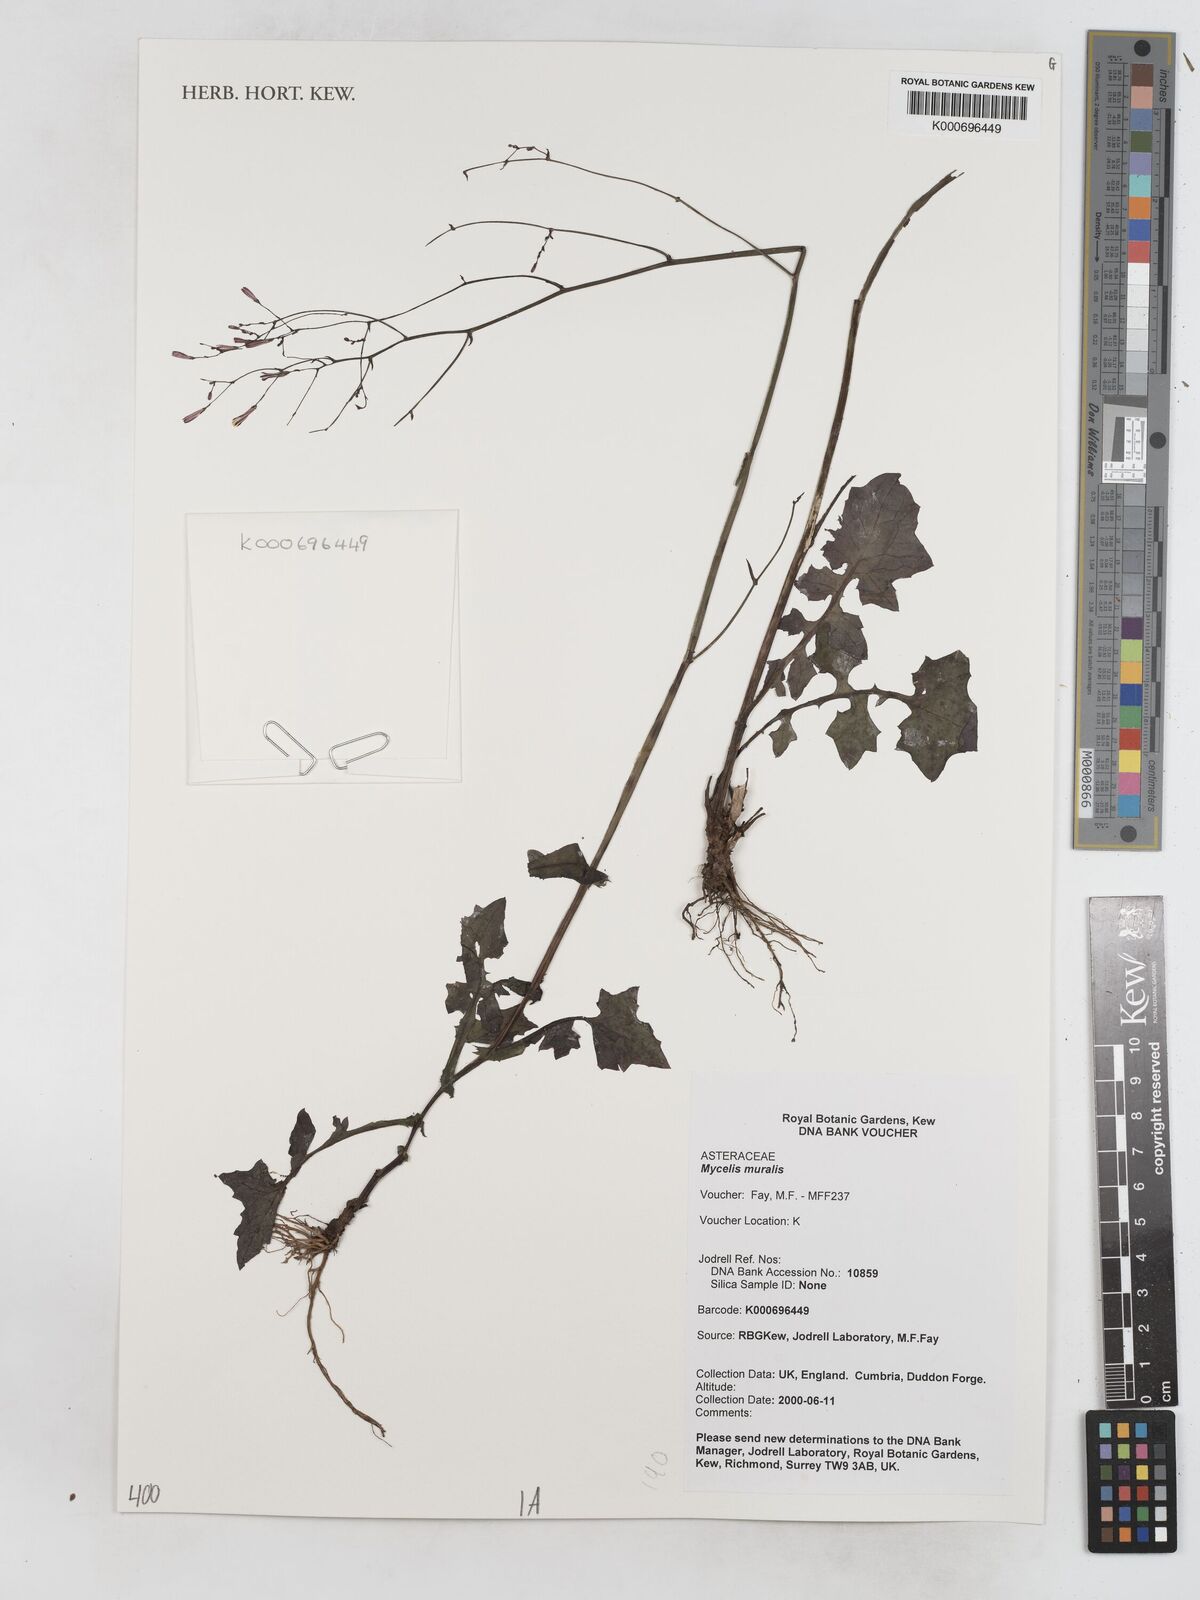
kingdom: Plantae
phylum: Tracheophyta
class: Magnoliopsida
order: Asterales
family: Asteraceae
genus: Mycelis
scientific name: Mycelis muralis
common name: Wall lettuce
